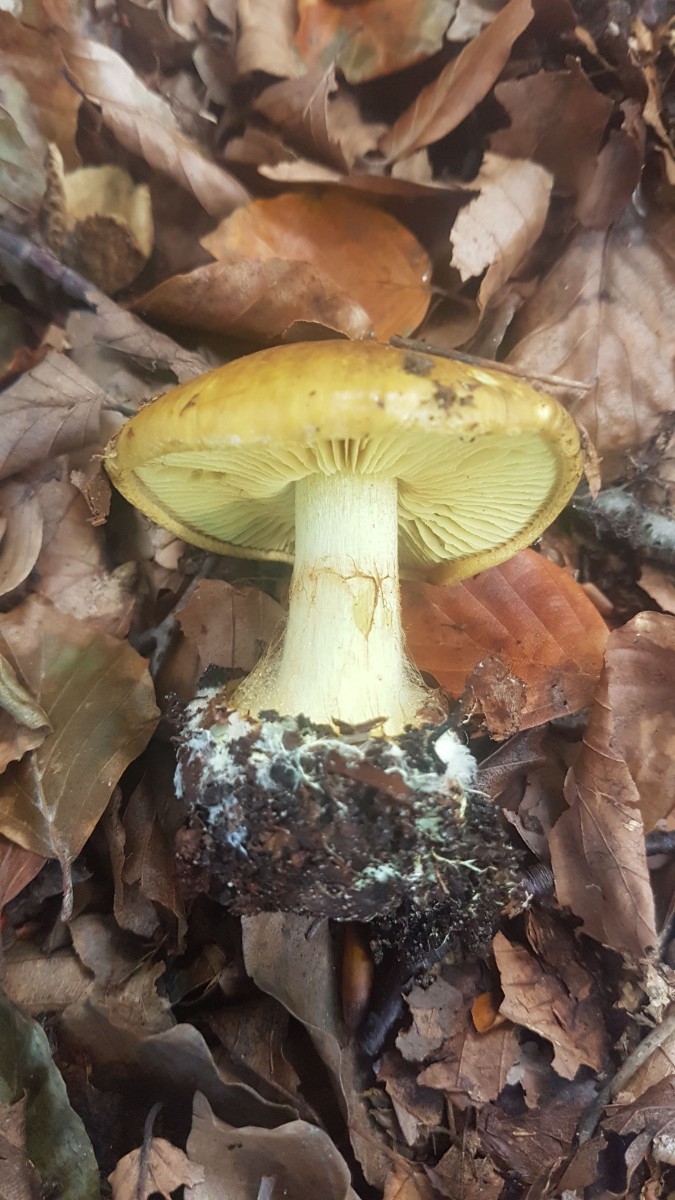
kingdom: Fungi
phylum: Basidiomycota
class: Agaricomycetes
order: Agaricales
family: Cortinariaceae
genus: Calonarius
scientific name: Calonarius citrinus
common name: citrongul slørhat
